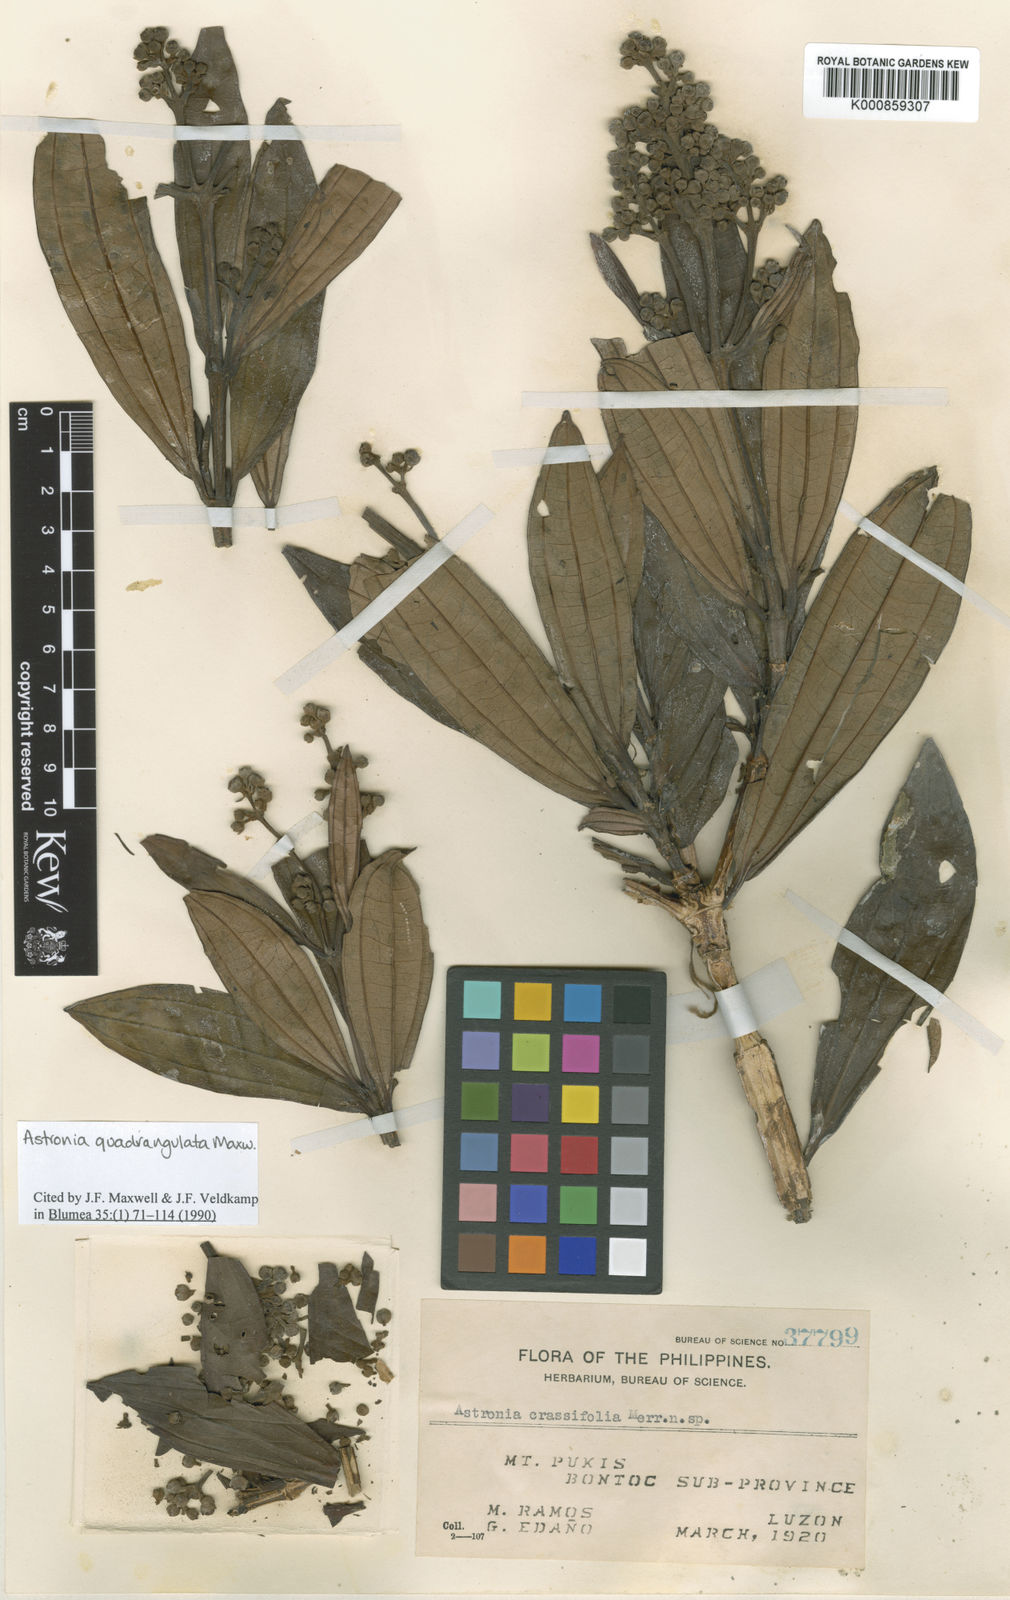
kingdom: Plantae
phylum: Tracheophyta
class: Magnoliopsida
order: Myrtales
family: Melastomataceae
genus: Astronia
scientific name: Astronia quadrangulata
